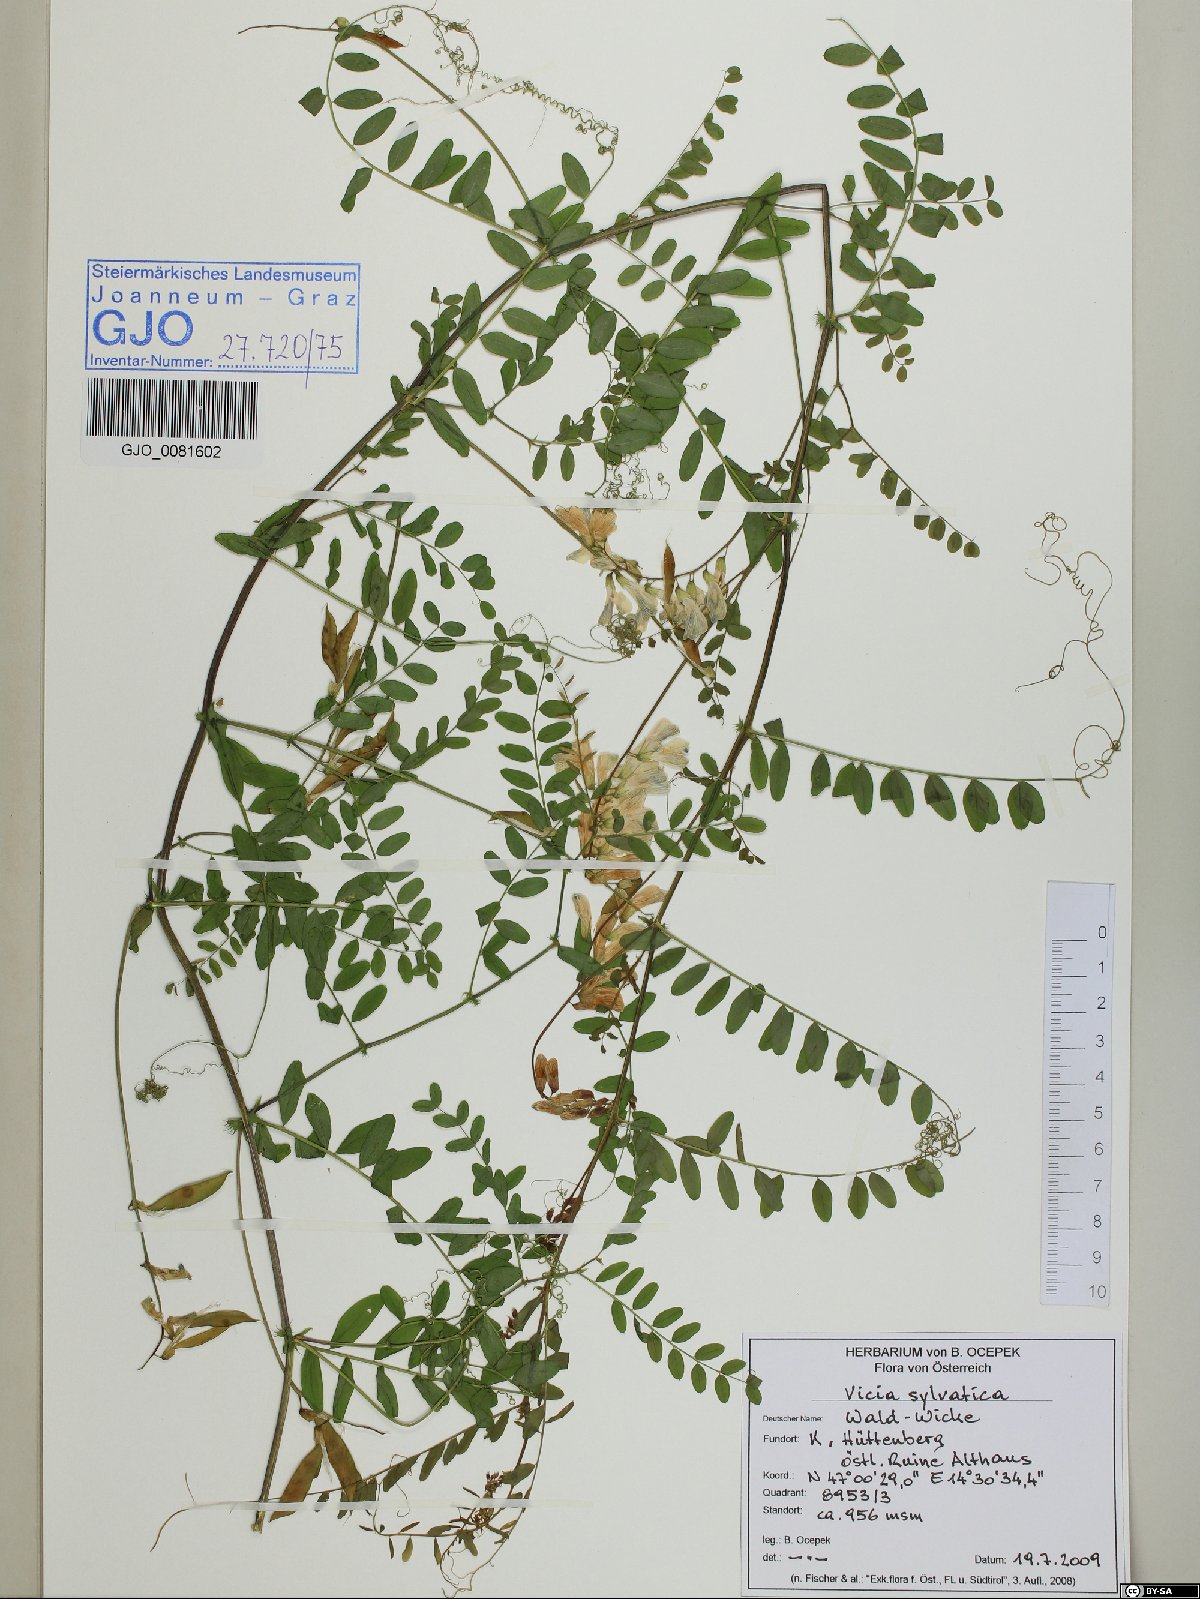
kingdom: Plantae
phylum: Tracheophyta
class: Magnoliopsida
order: Fabales
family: Fabaceae
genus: Vicia
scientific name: Vicia sylvatica
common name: Wood vetch
